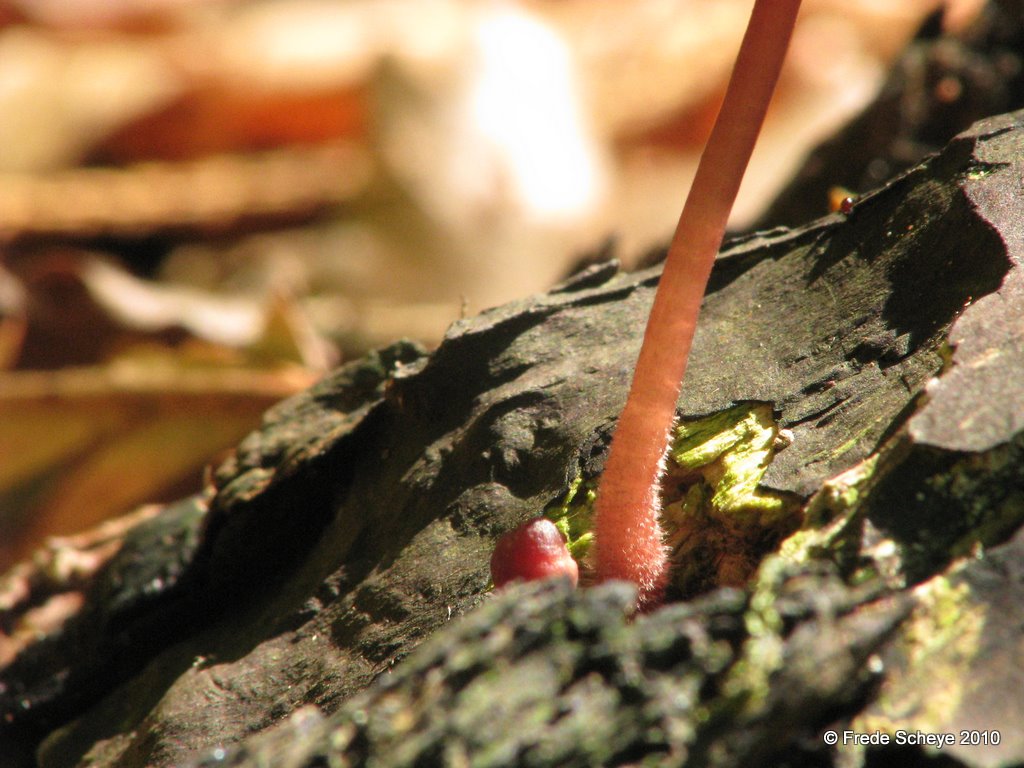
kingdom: Fungi
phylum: Basidiomycota
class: Agaricomycetes
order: Agaricales
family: Mycenaceae
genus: Mycena
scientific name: Mycena sanguinolenta
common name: rødmælket huesvamp
